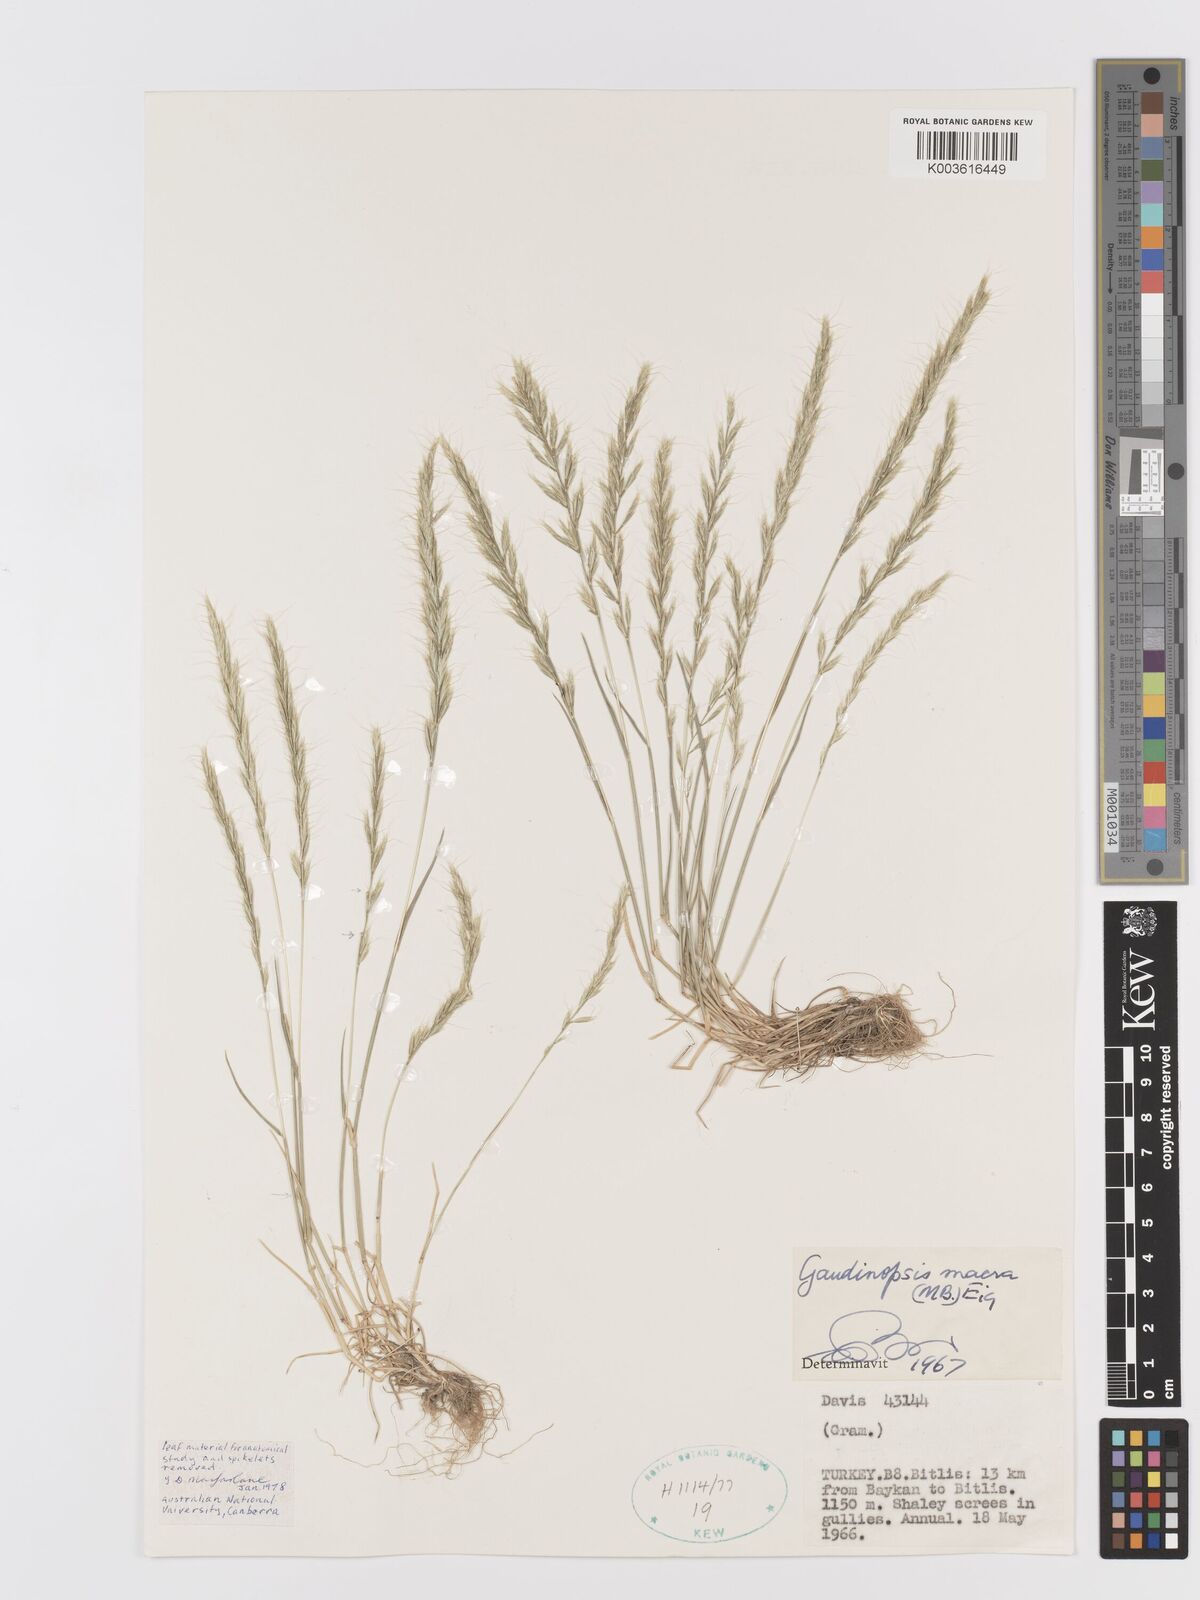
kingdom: Plantae
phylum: Tracheophyta
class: Liliopsida
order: Poales
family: Poaceae
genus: Ventenata
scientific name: Ventenata macra
